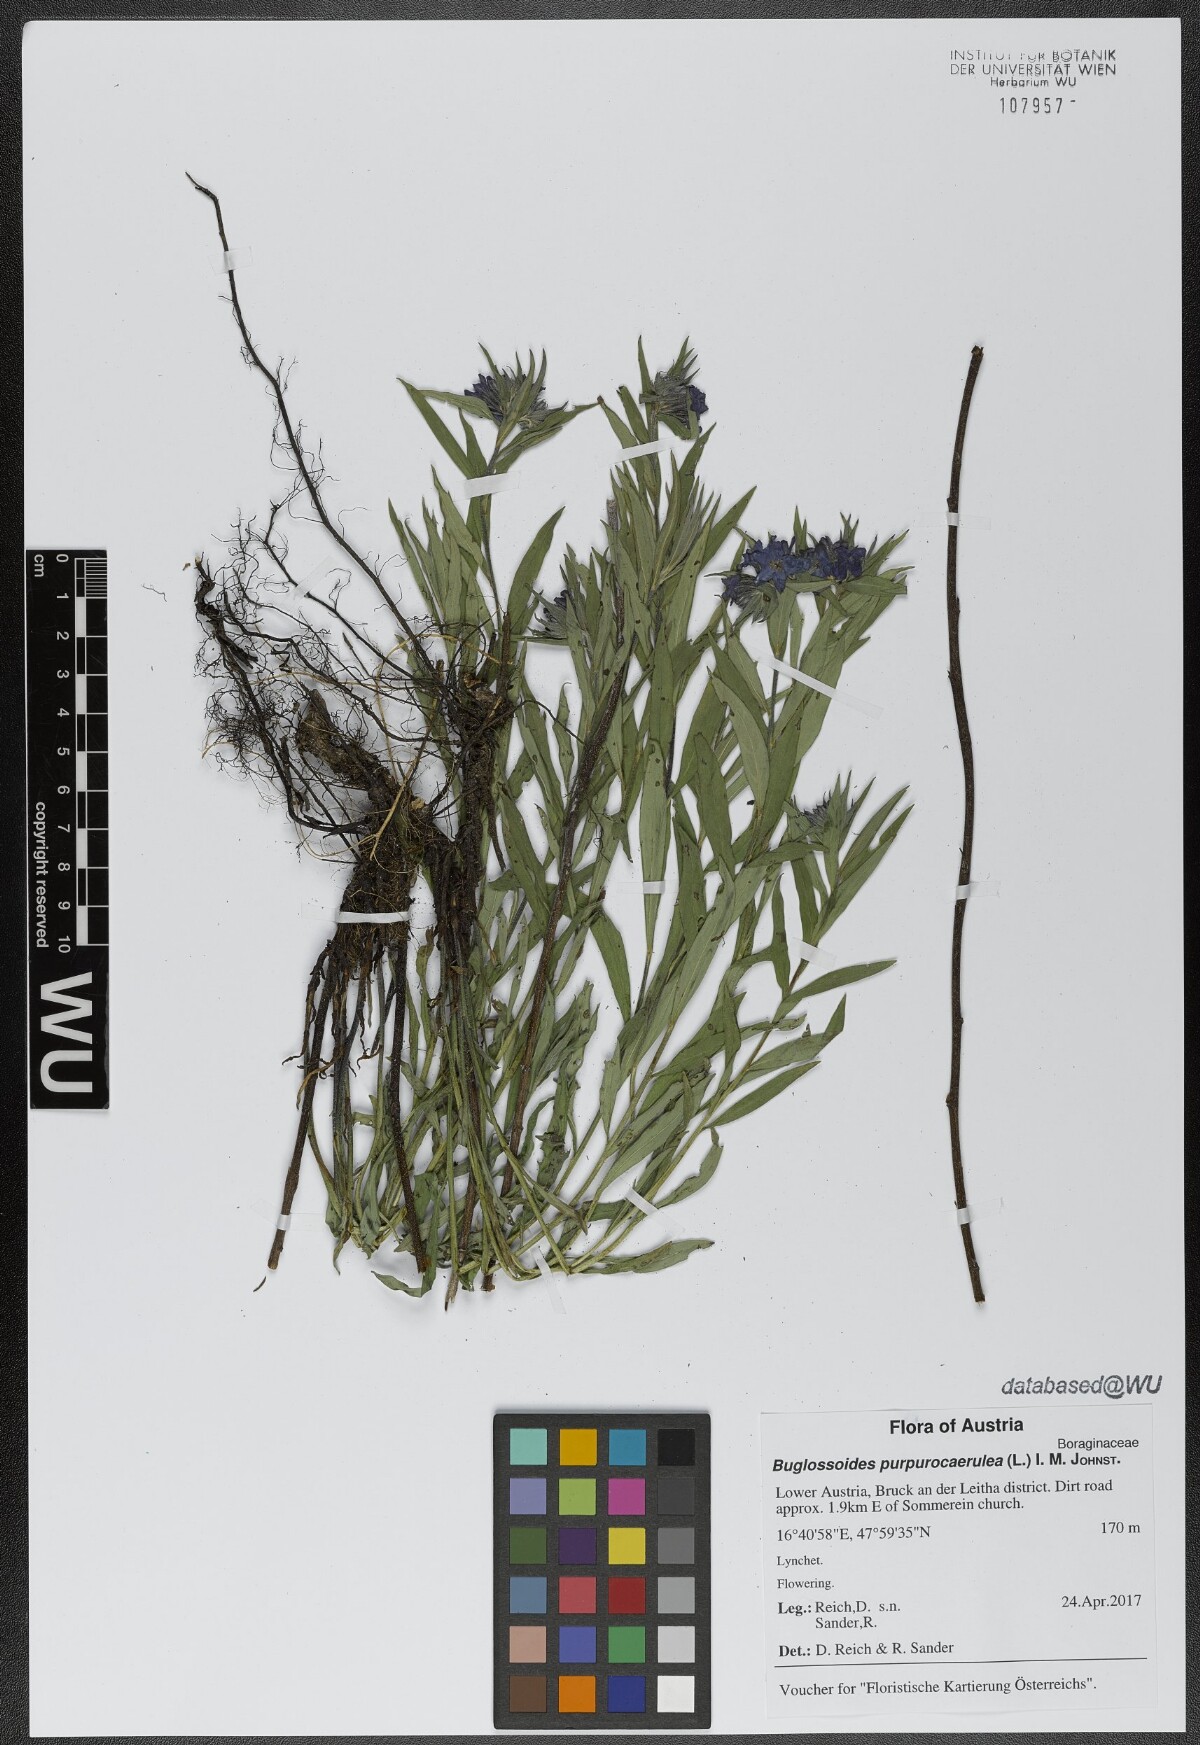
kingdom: Plantae
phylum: Tracheophyta
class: Magnoliopsida
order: Boraginales
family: Boraginaceae
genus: Aegonychon
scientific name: Aegonychon purpurocaeruleum
